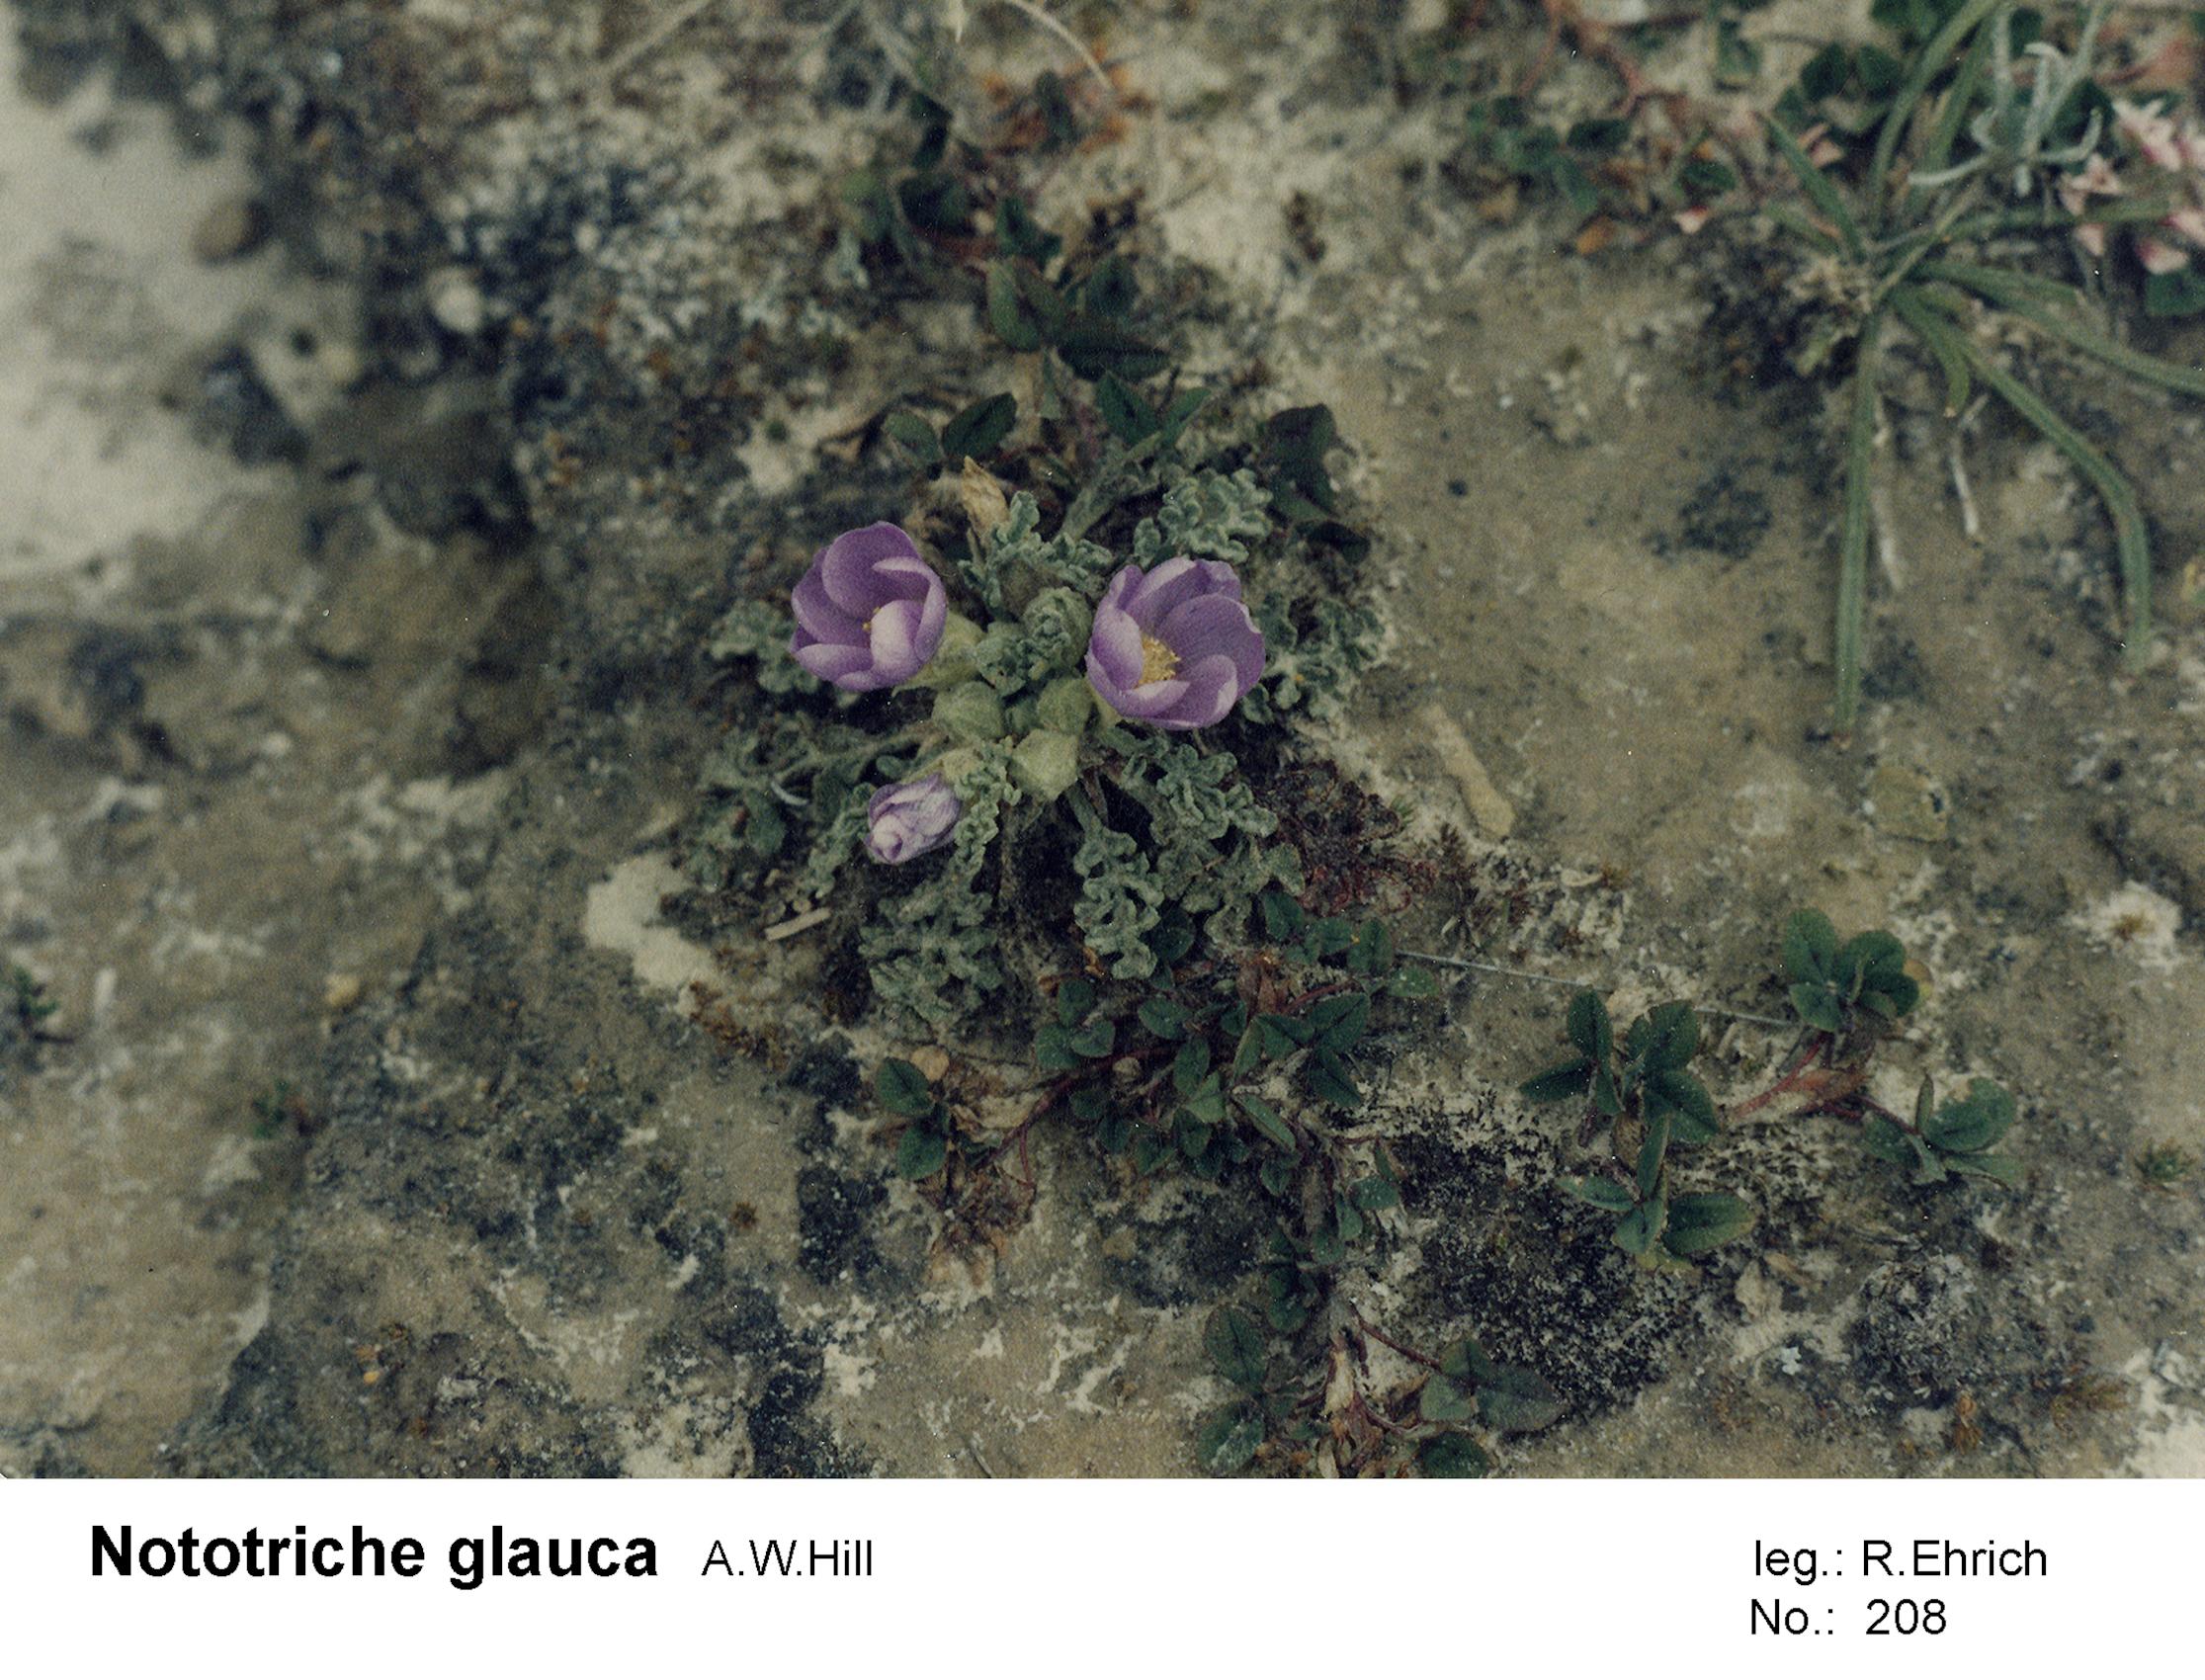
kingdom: Plantae
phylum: Tracheophyta
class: Magnoliopsida
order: Malvales
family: Malvaceae
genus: Nototriche
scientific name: Nototriche glauca
